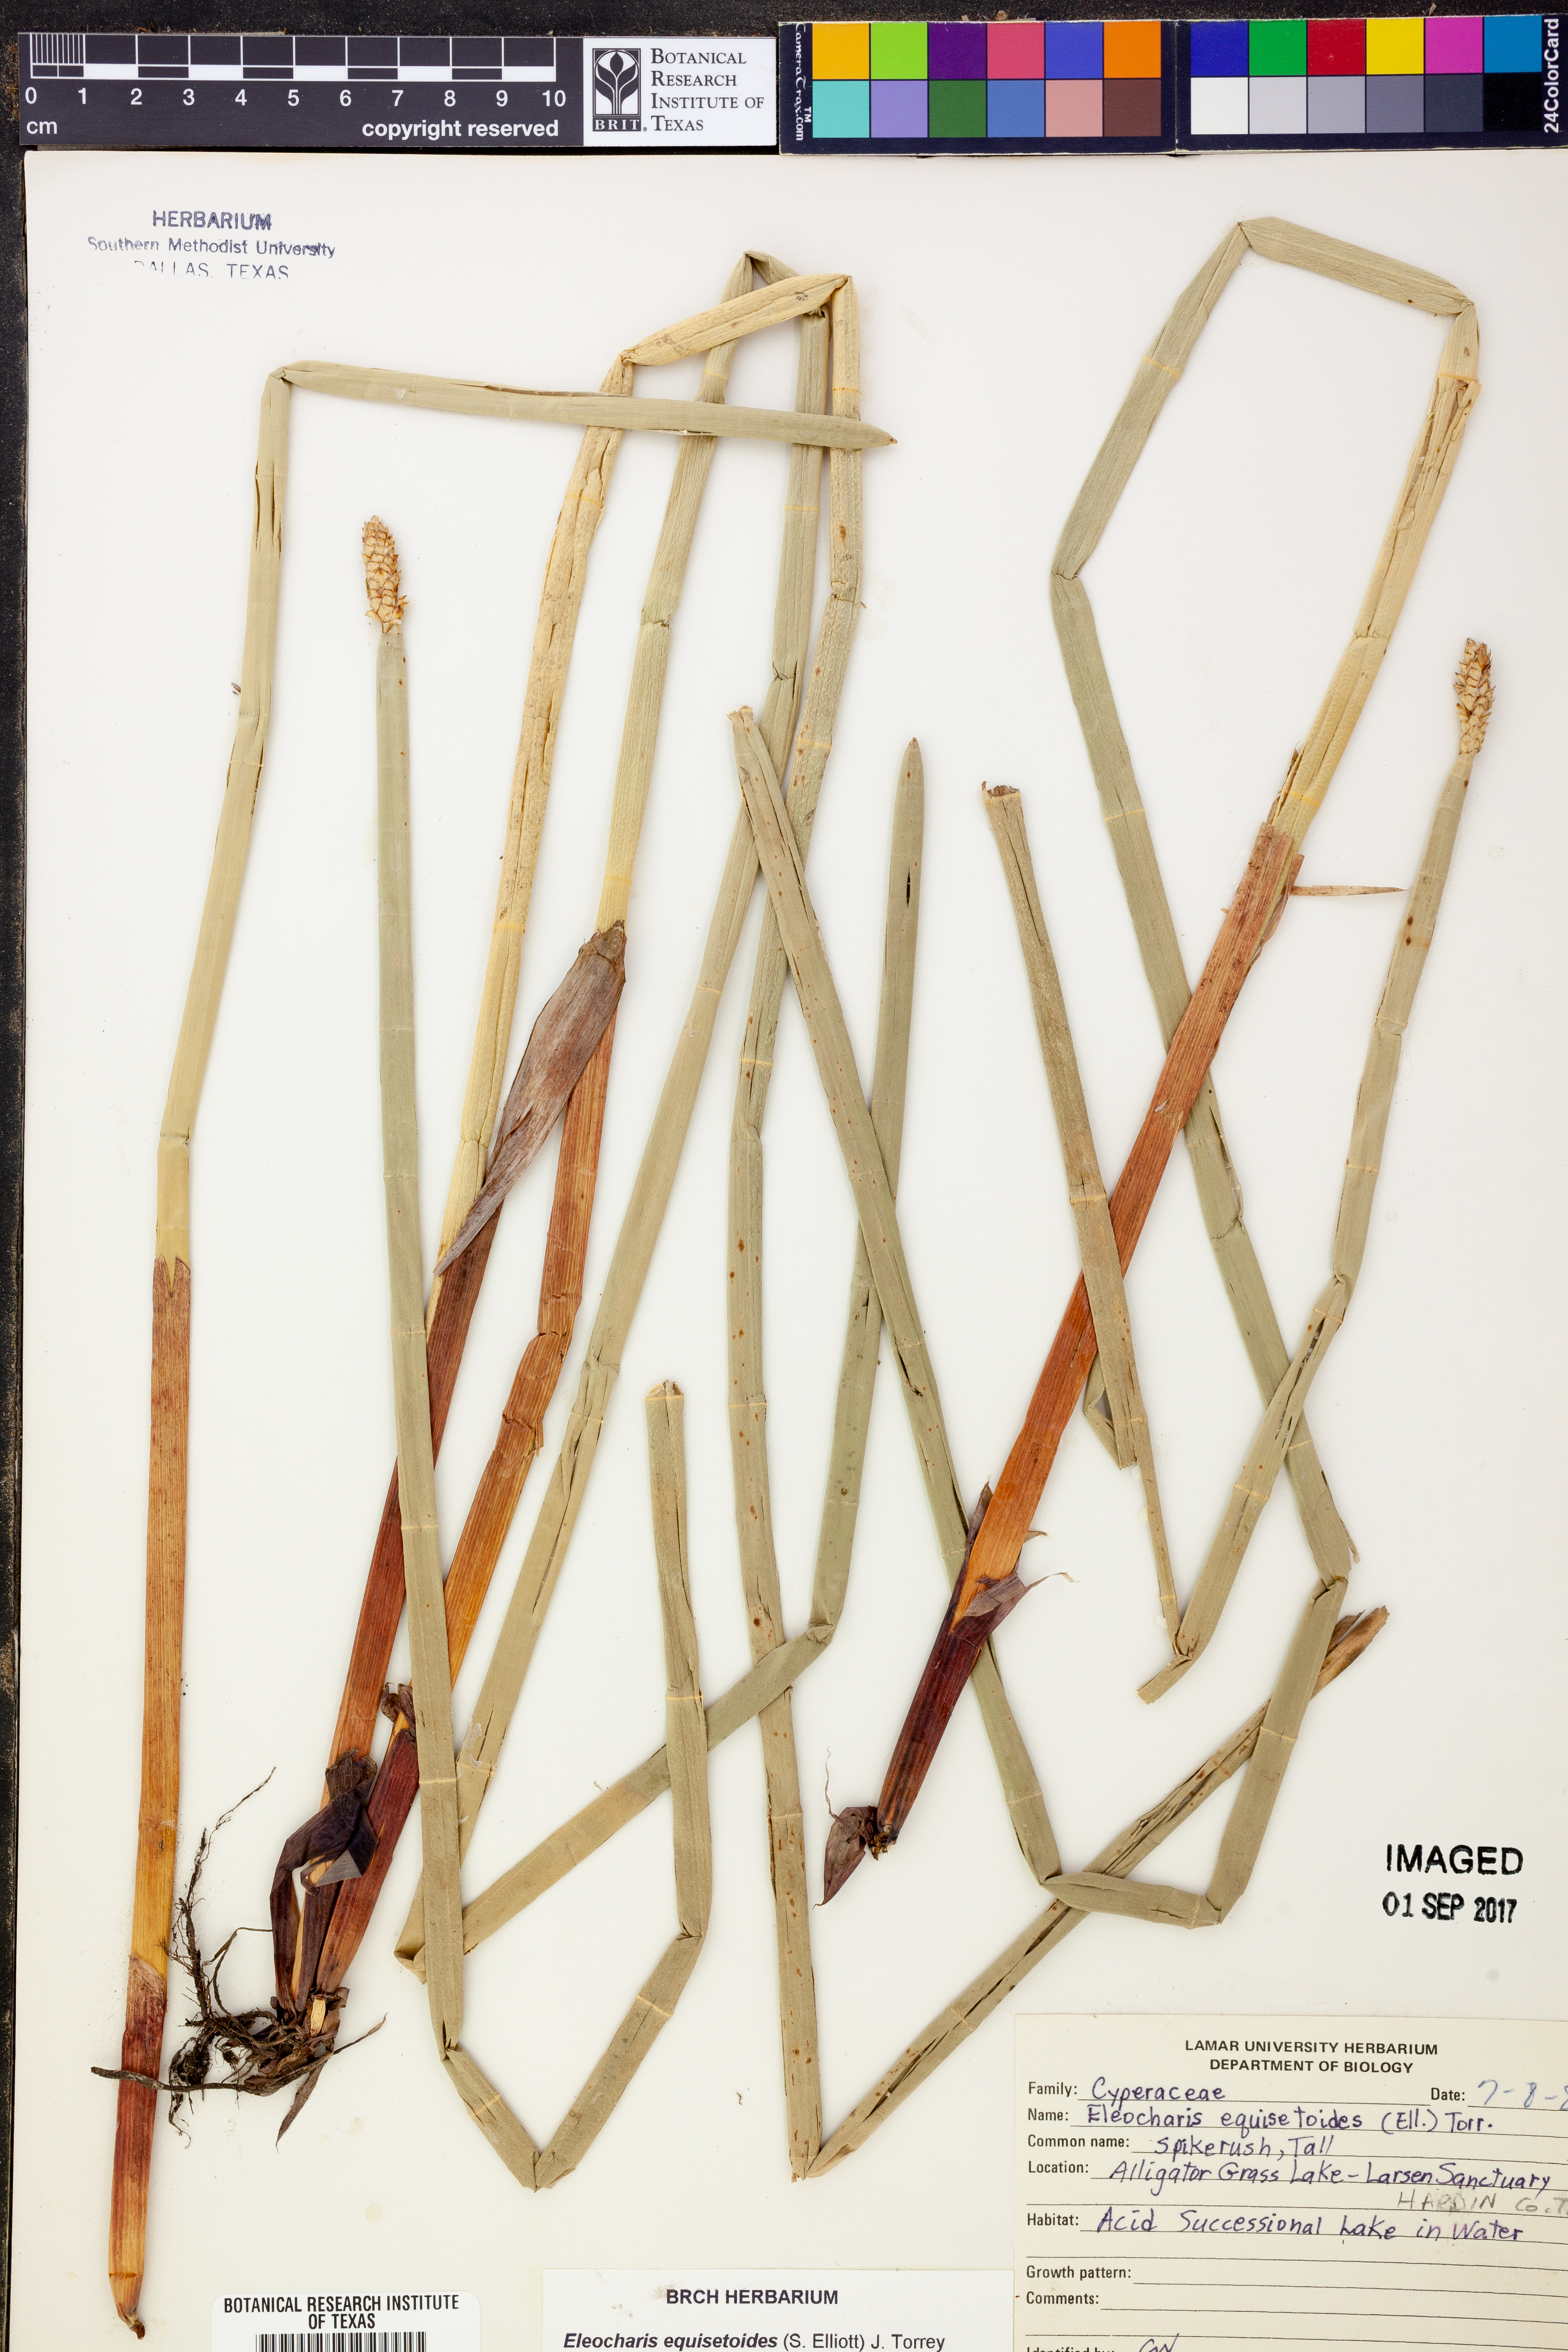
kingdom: Plantae
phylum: Tracheophyta
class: Liliopsida
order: Poales
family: Cyperaceae
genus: Eleocharis
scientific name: Eleocharis equisetoides
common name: Horsetail spike-rush
